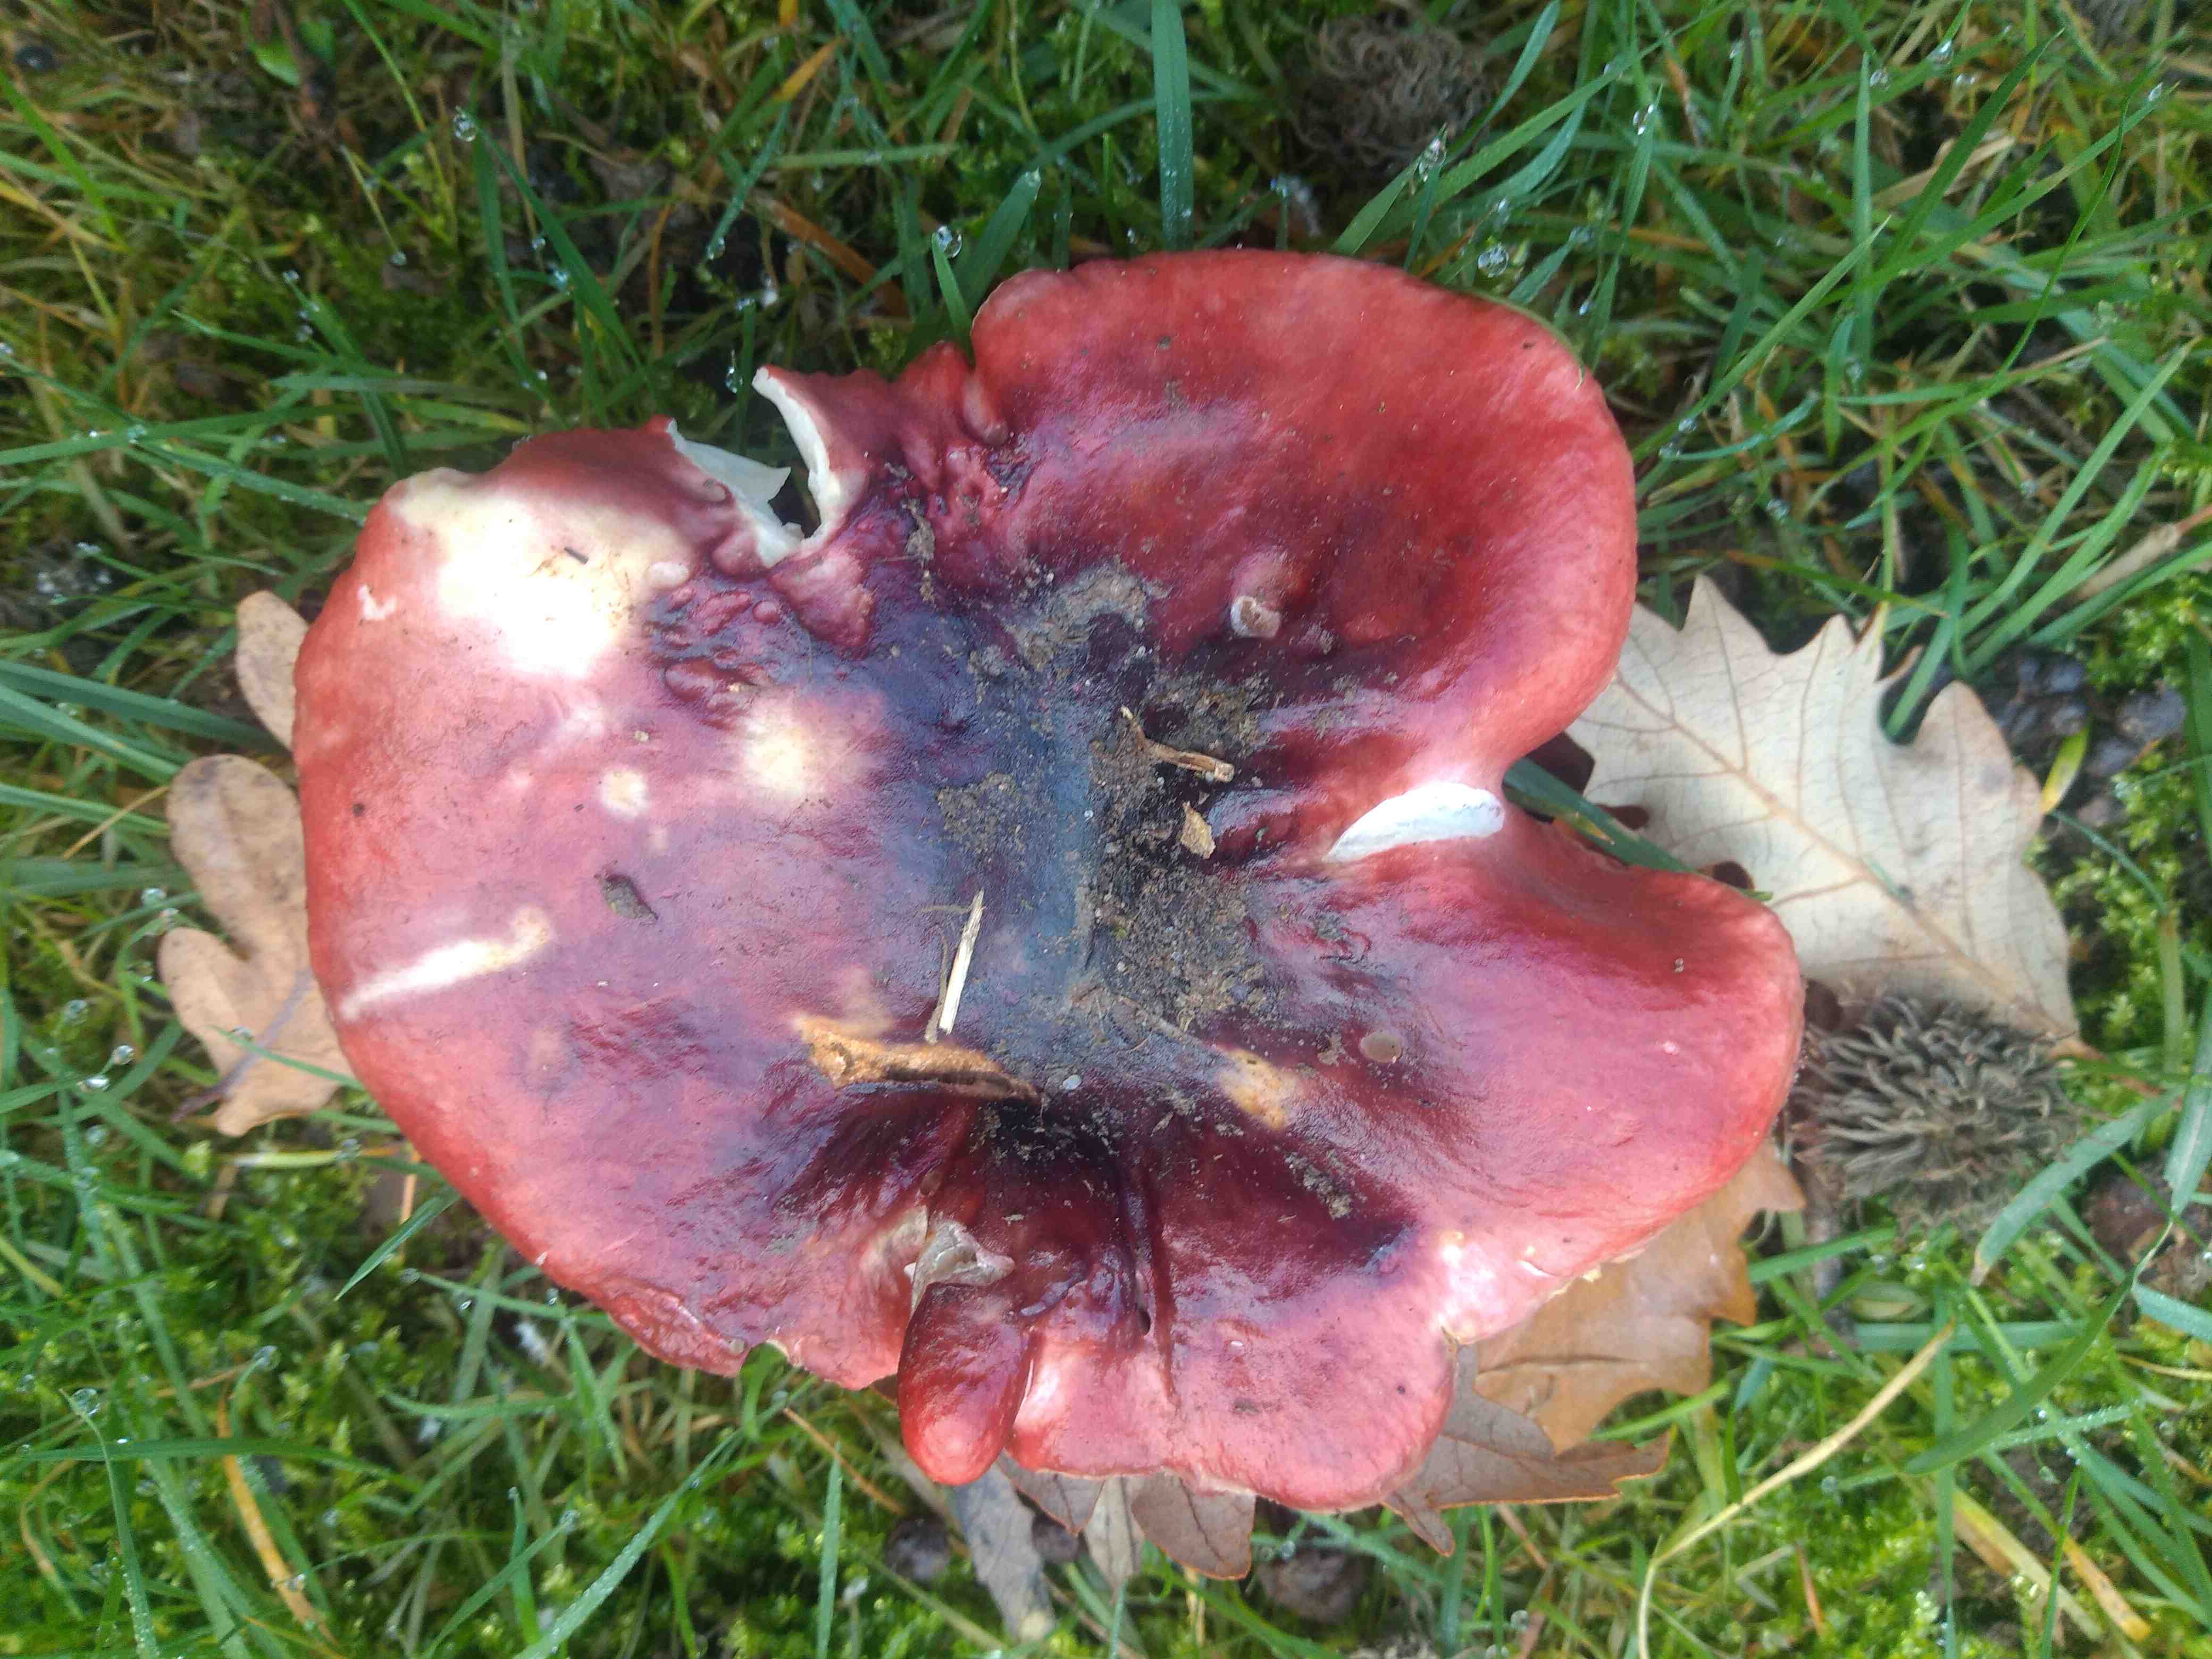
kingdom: Fungi
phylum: Basidiomycota
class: Agaricomycetes
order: Russulales
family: Russulaceae
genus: Russula
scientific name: Russula
